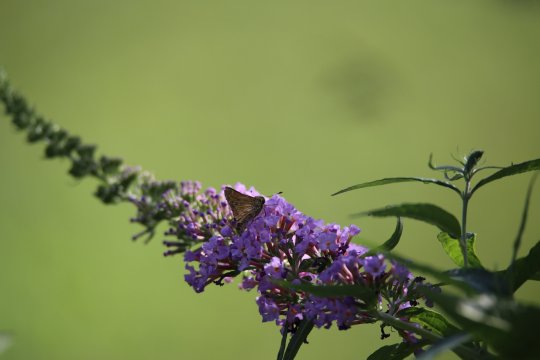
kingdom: Animalia
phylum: Arthropoda
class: Insecta
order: Lepidoptera
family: Hesperiidae
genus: Euphyes
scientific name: Euphyes vestris
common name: Dun Skipper
